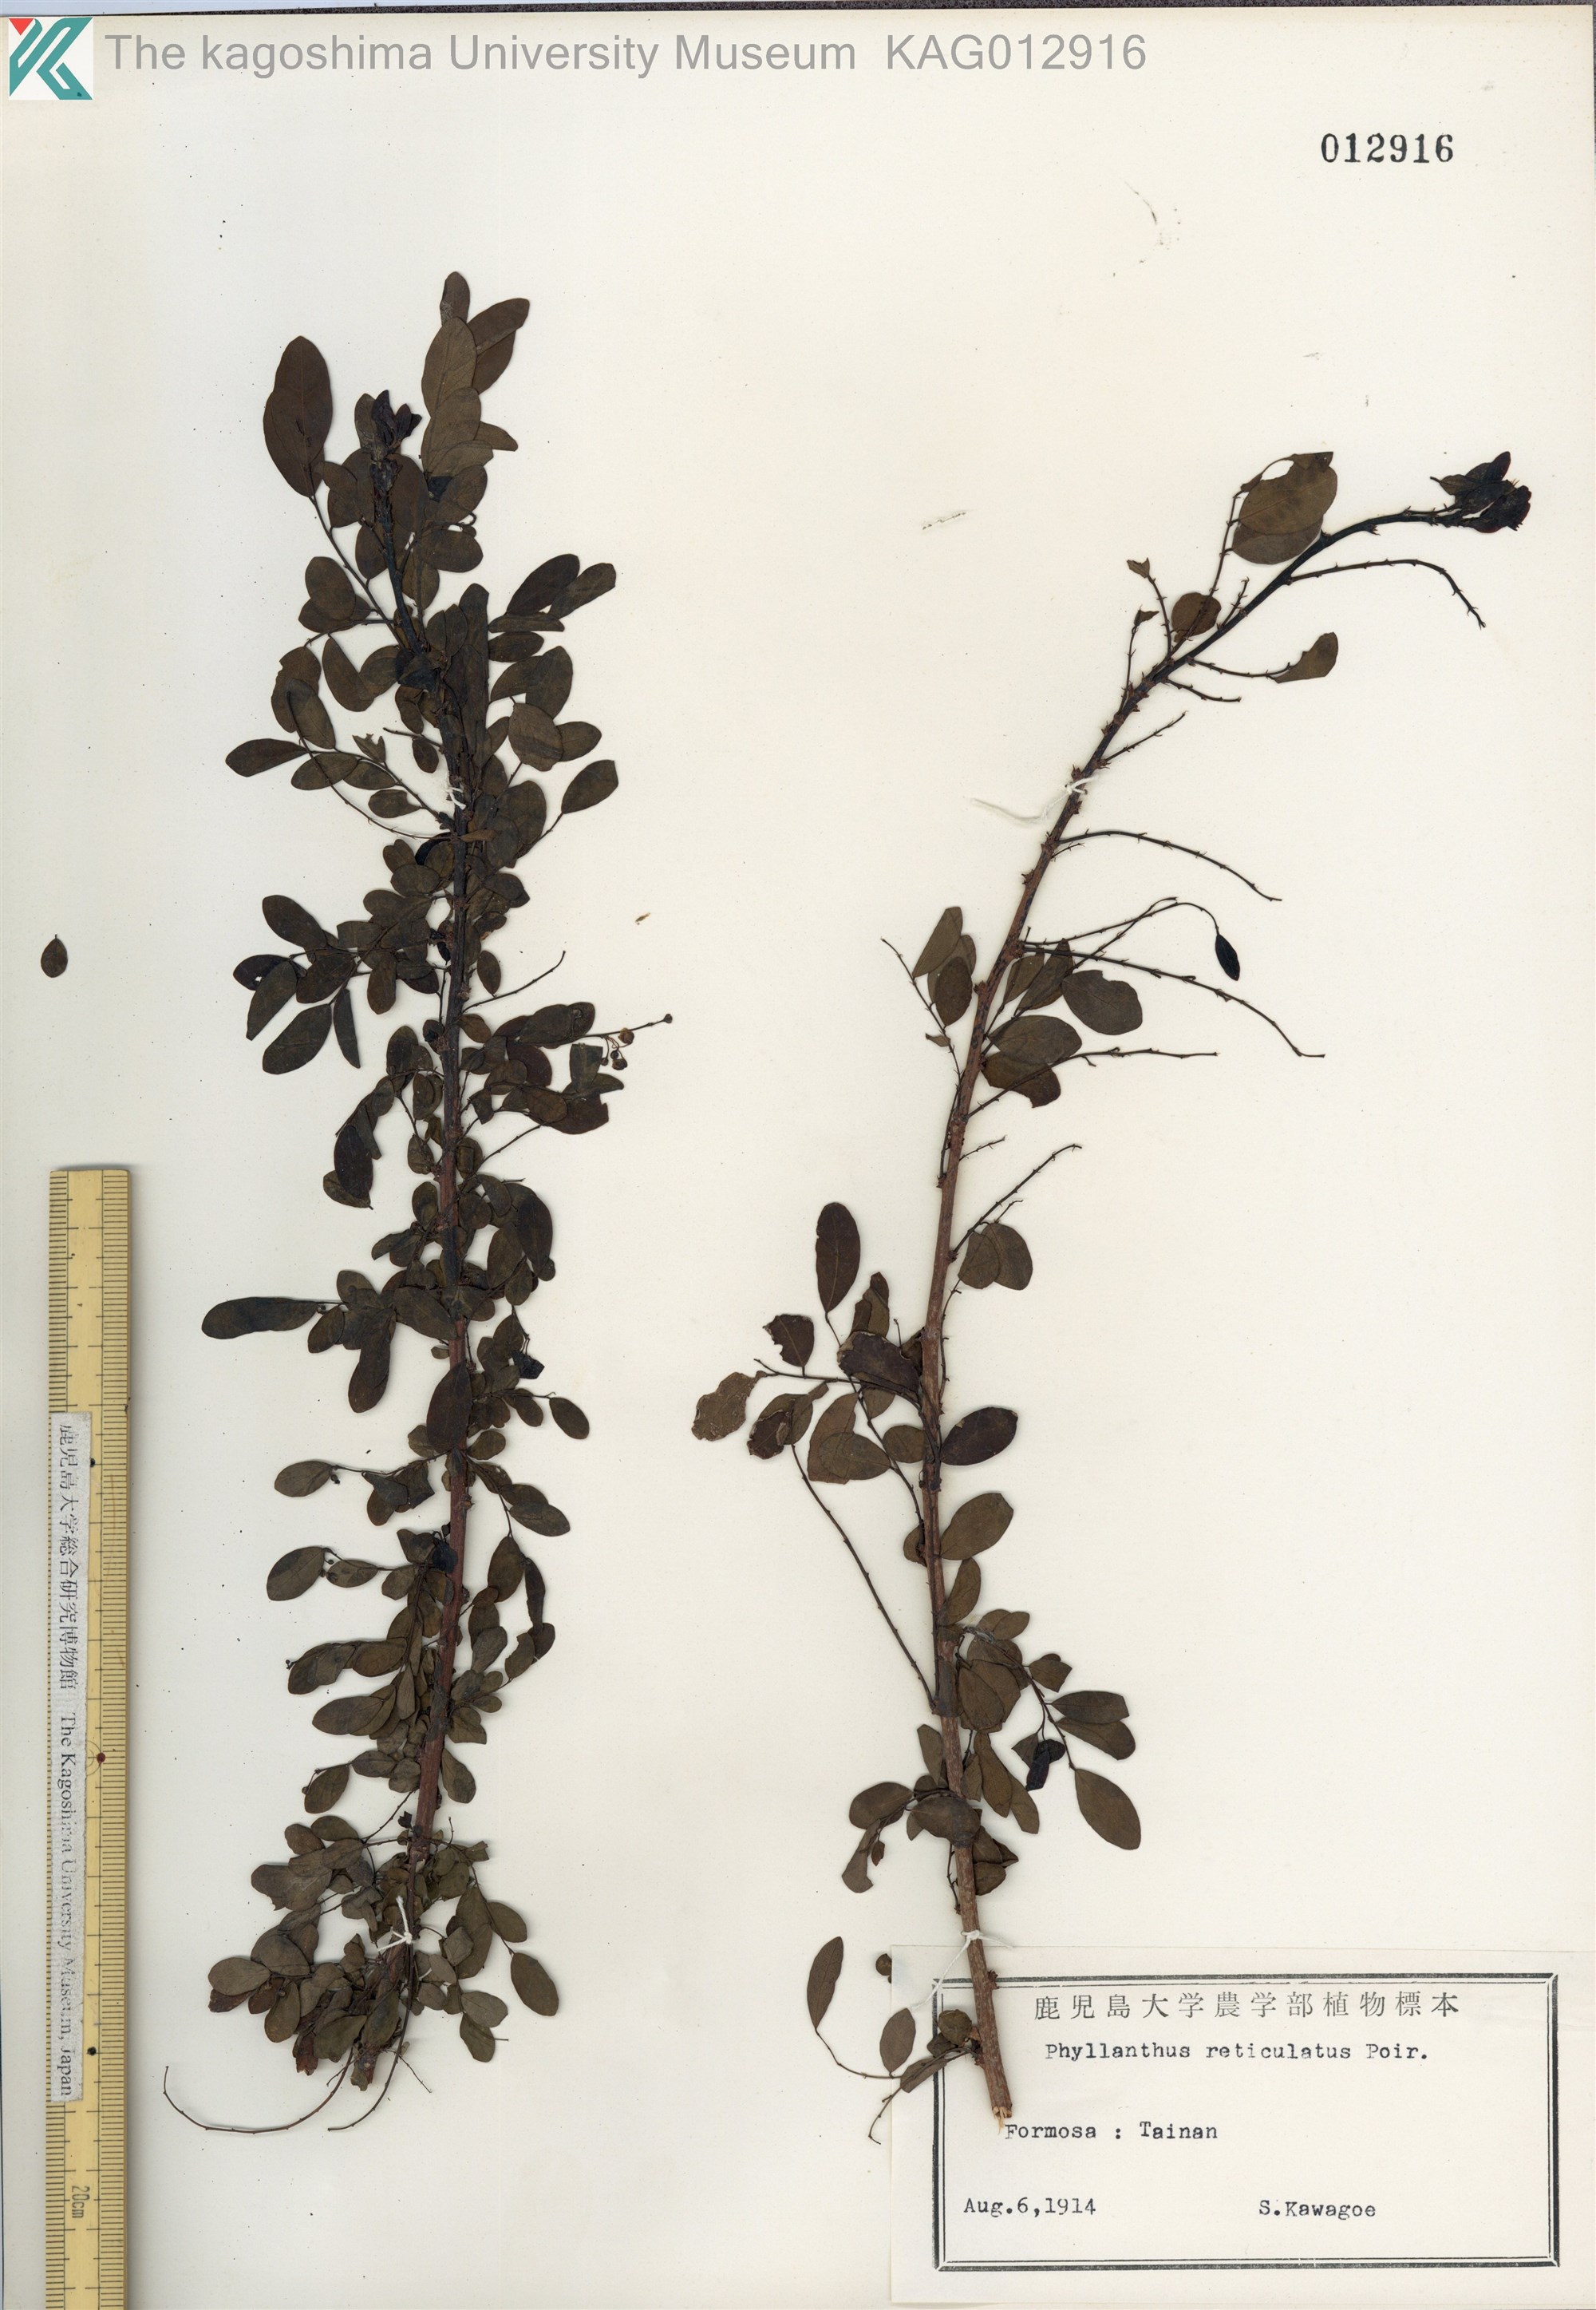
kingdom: Plantae
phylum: Tracheophyta
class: Magnoliopsida
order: Malpighiales
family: Phyllanthaceae
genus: Phyllanthus
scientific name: Phyllanthus reticulatus
